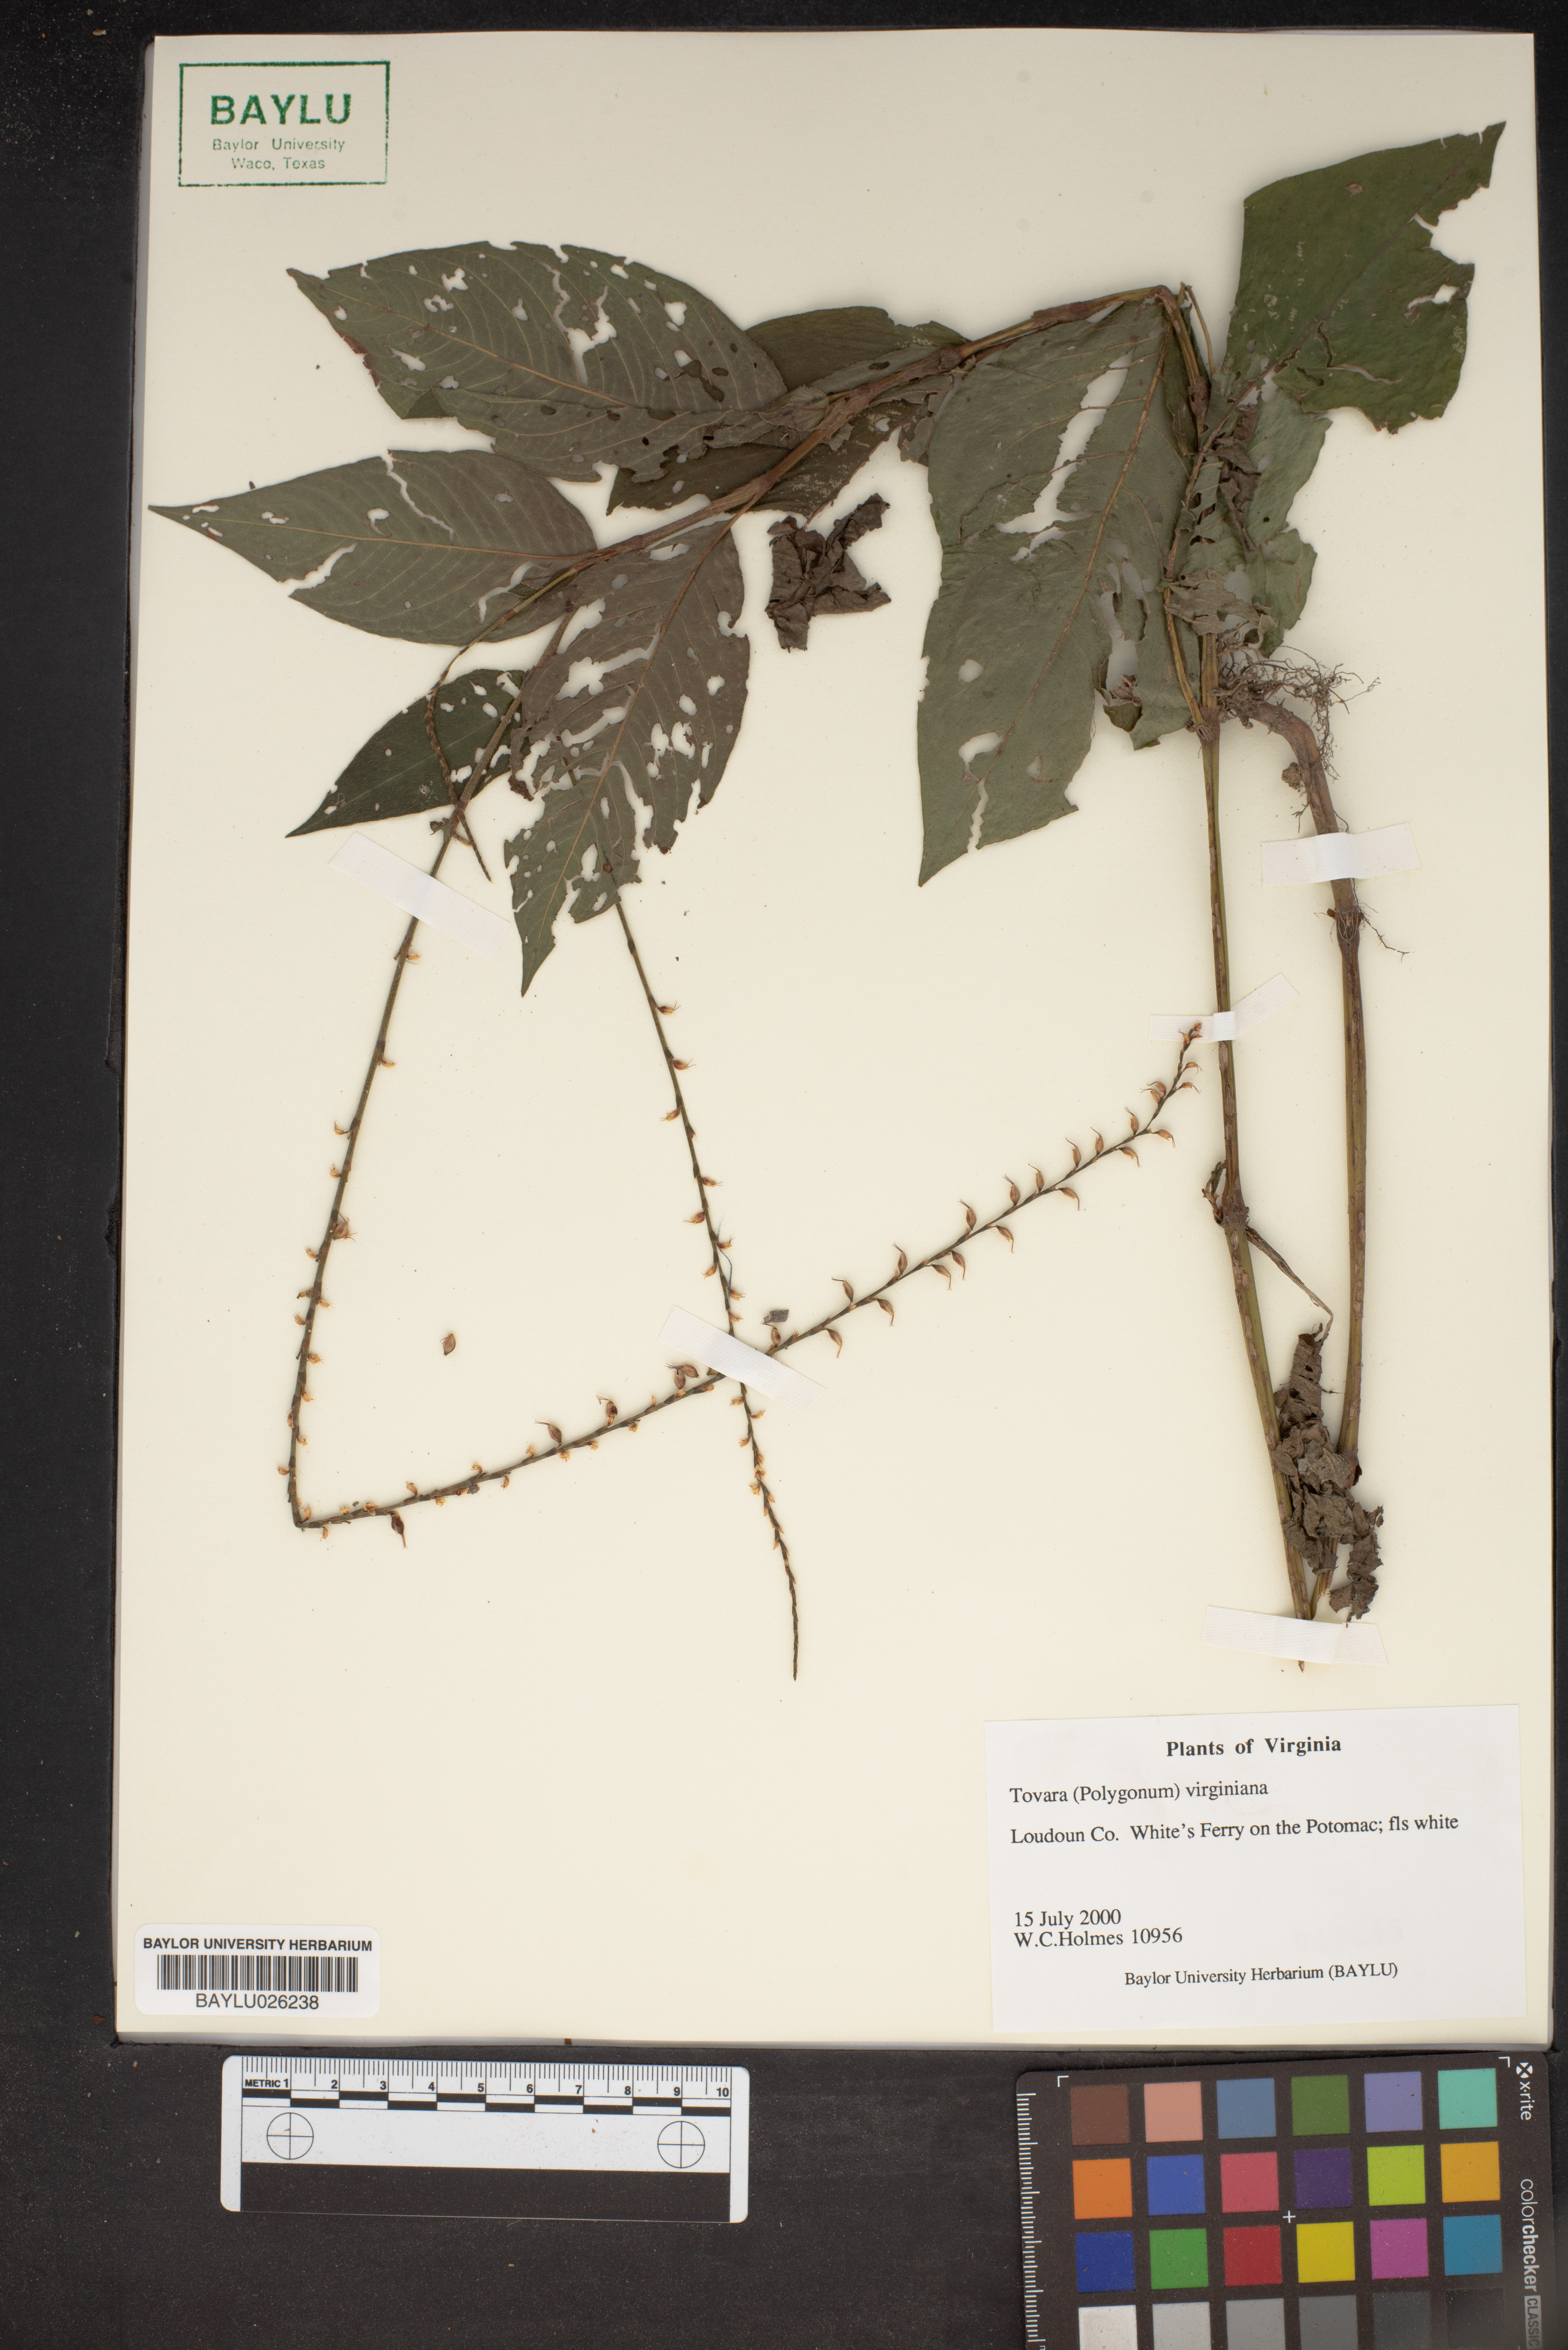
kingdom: Plantae
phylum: Tracheophyta
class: Magnoliopsida
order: Caryophyllales
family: Polygonaceae
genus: Persicaria
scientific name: Persicaria virginiana
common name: Jumpseed
